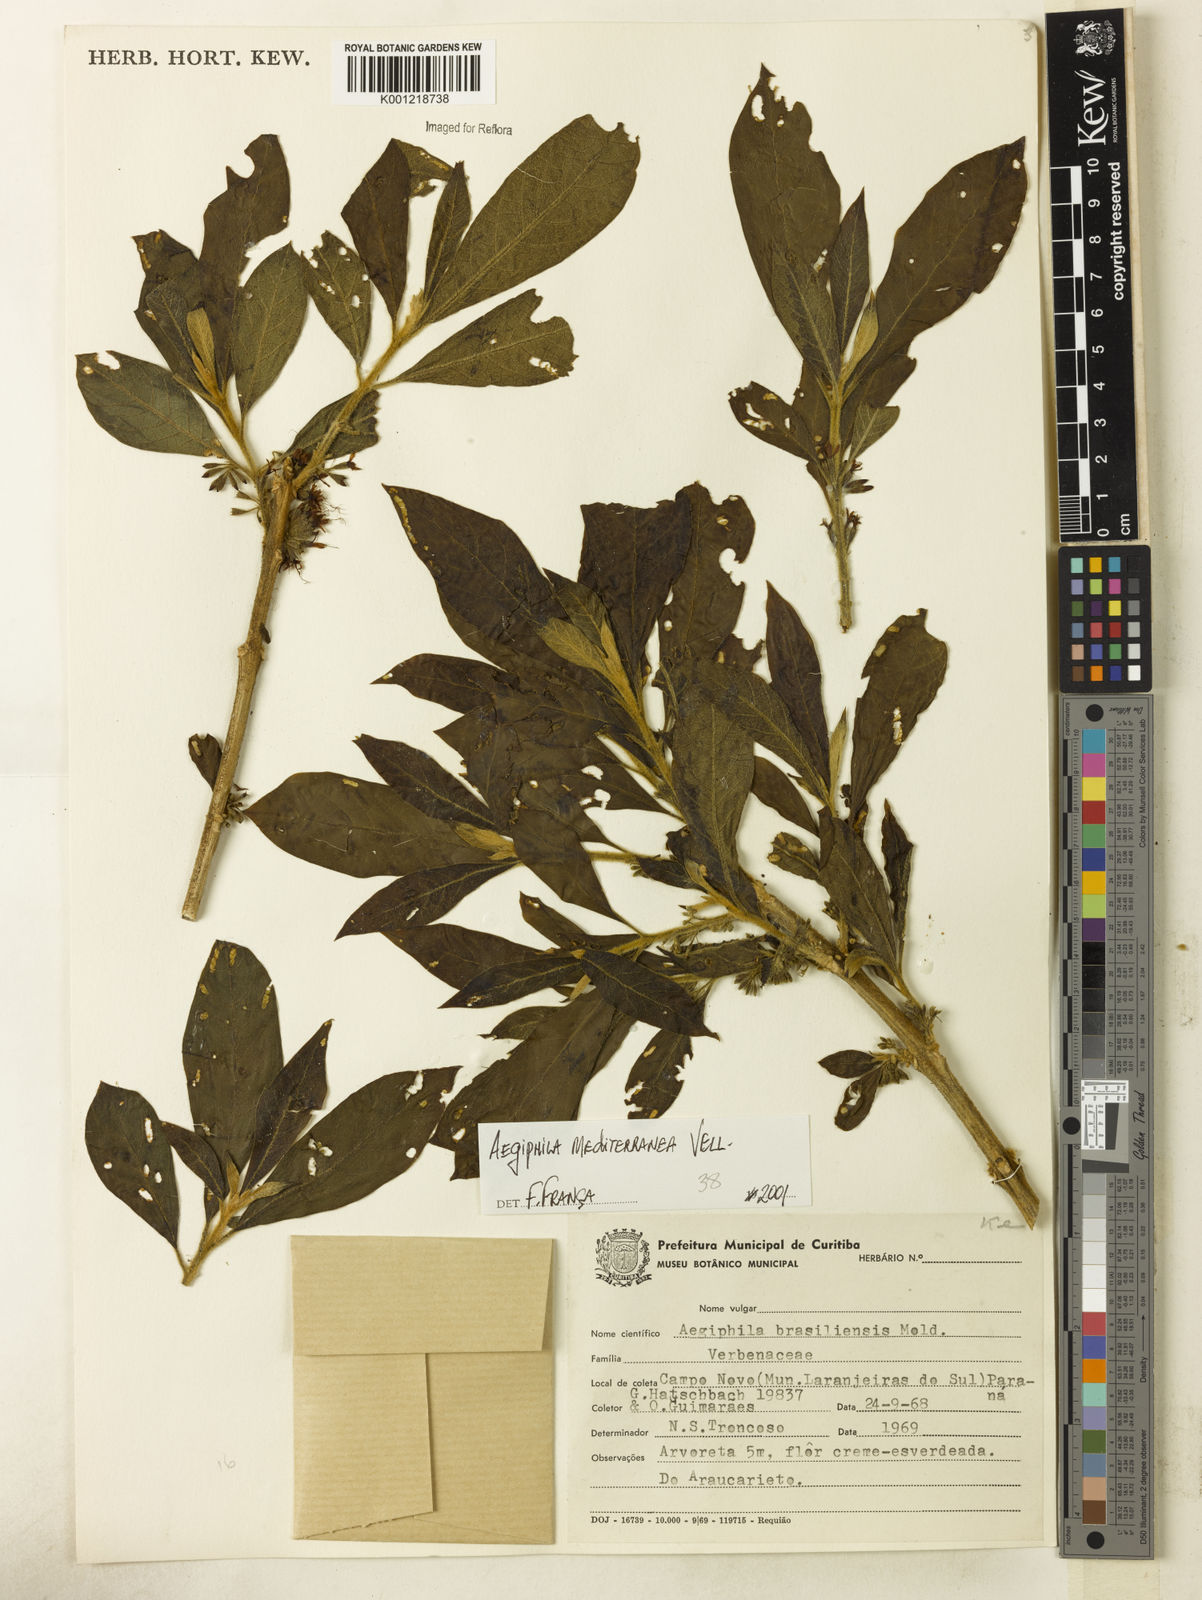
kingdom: Plantae
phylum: Tracheophyta
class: Magnoliopsida
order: Lamiales
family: Lamiaceae
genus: Aegiphila
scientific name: Aegiphila mediterranea
